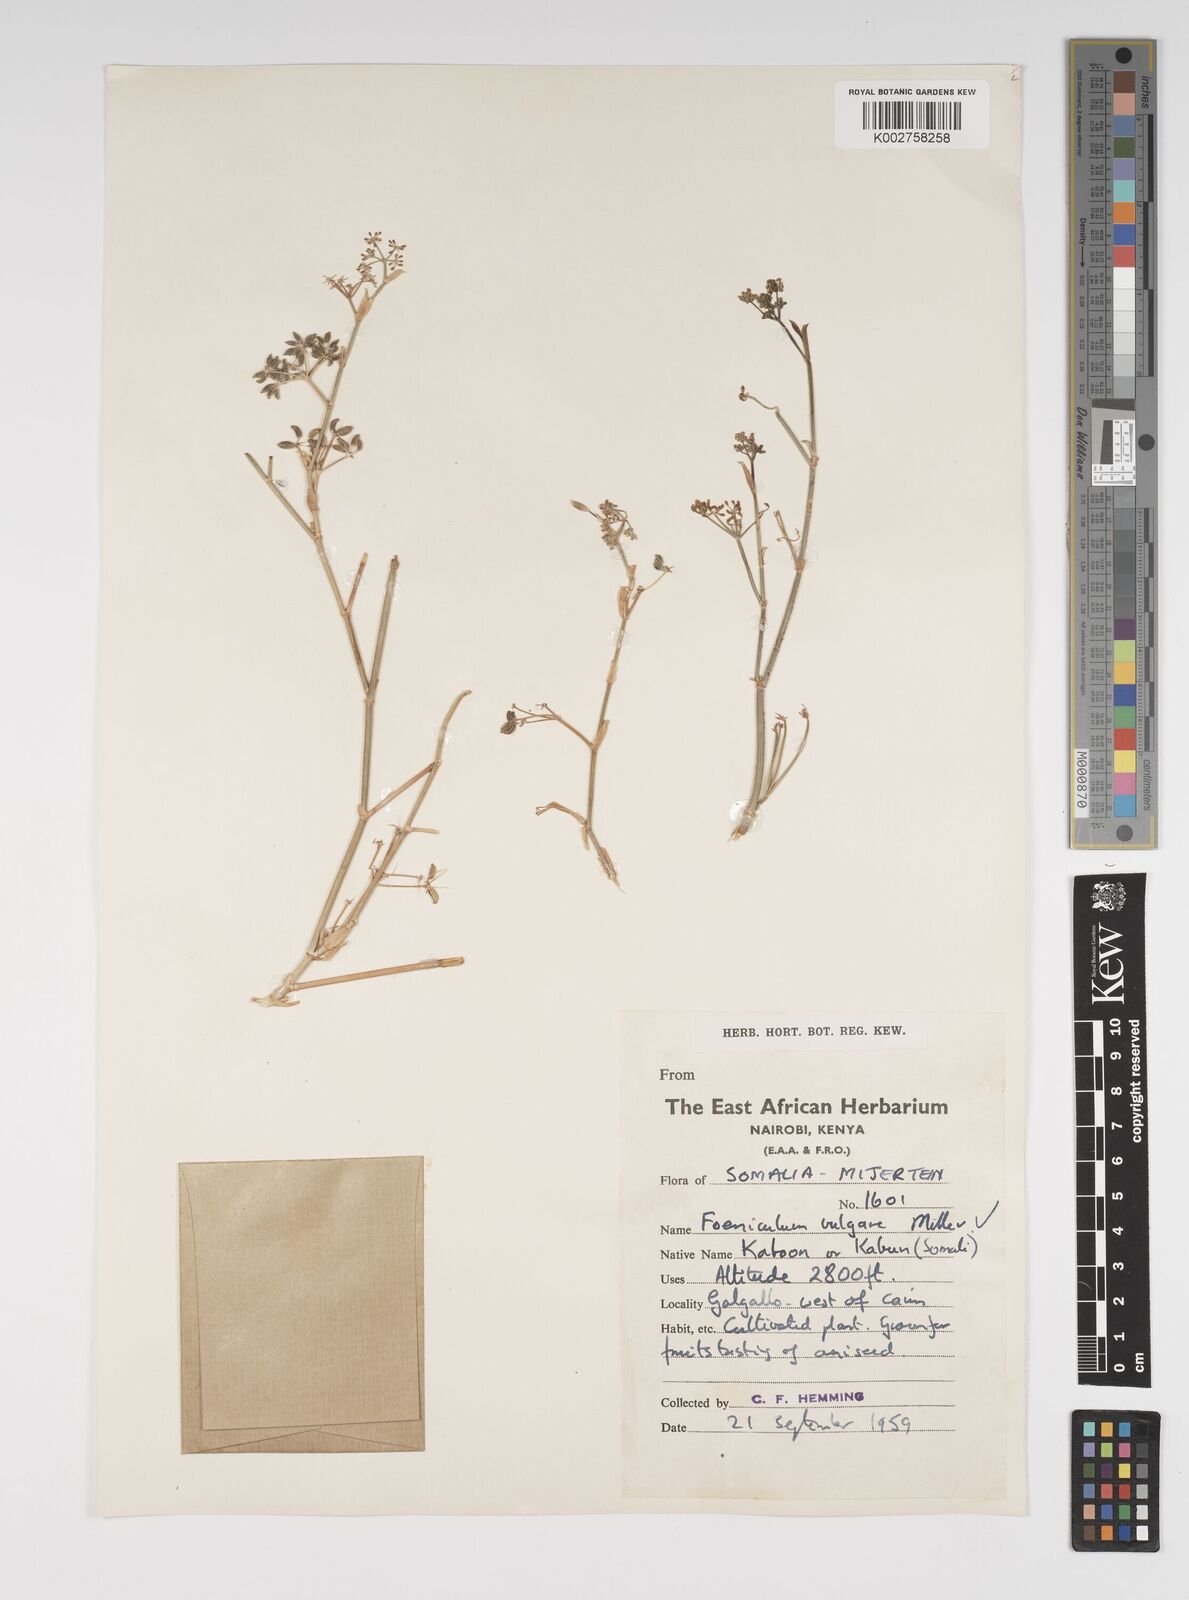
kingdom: Plantae
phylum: Tracheophyta
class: Magnoliopsida
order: Apiales
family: Apiaceae
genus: Foeniculum
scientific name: Foeniculum vulgare
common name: Fennel
